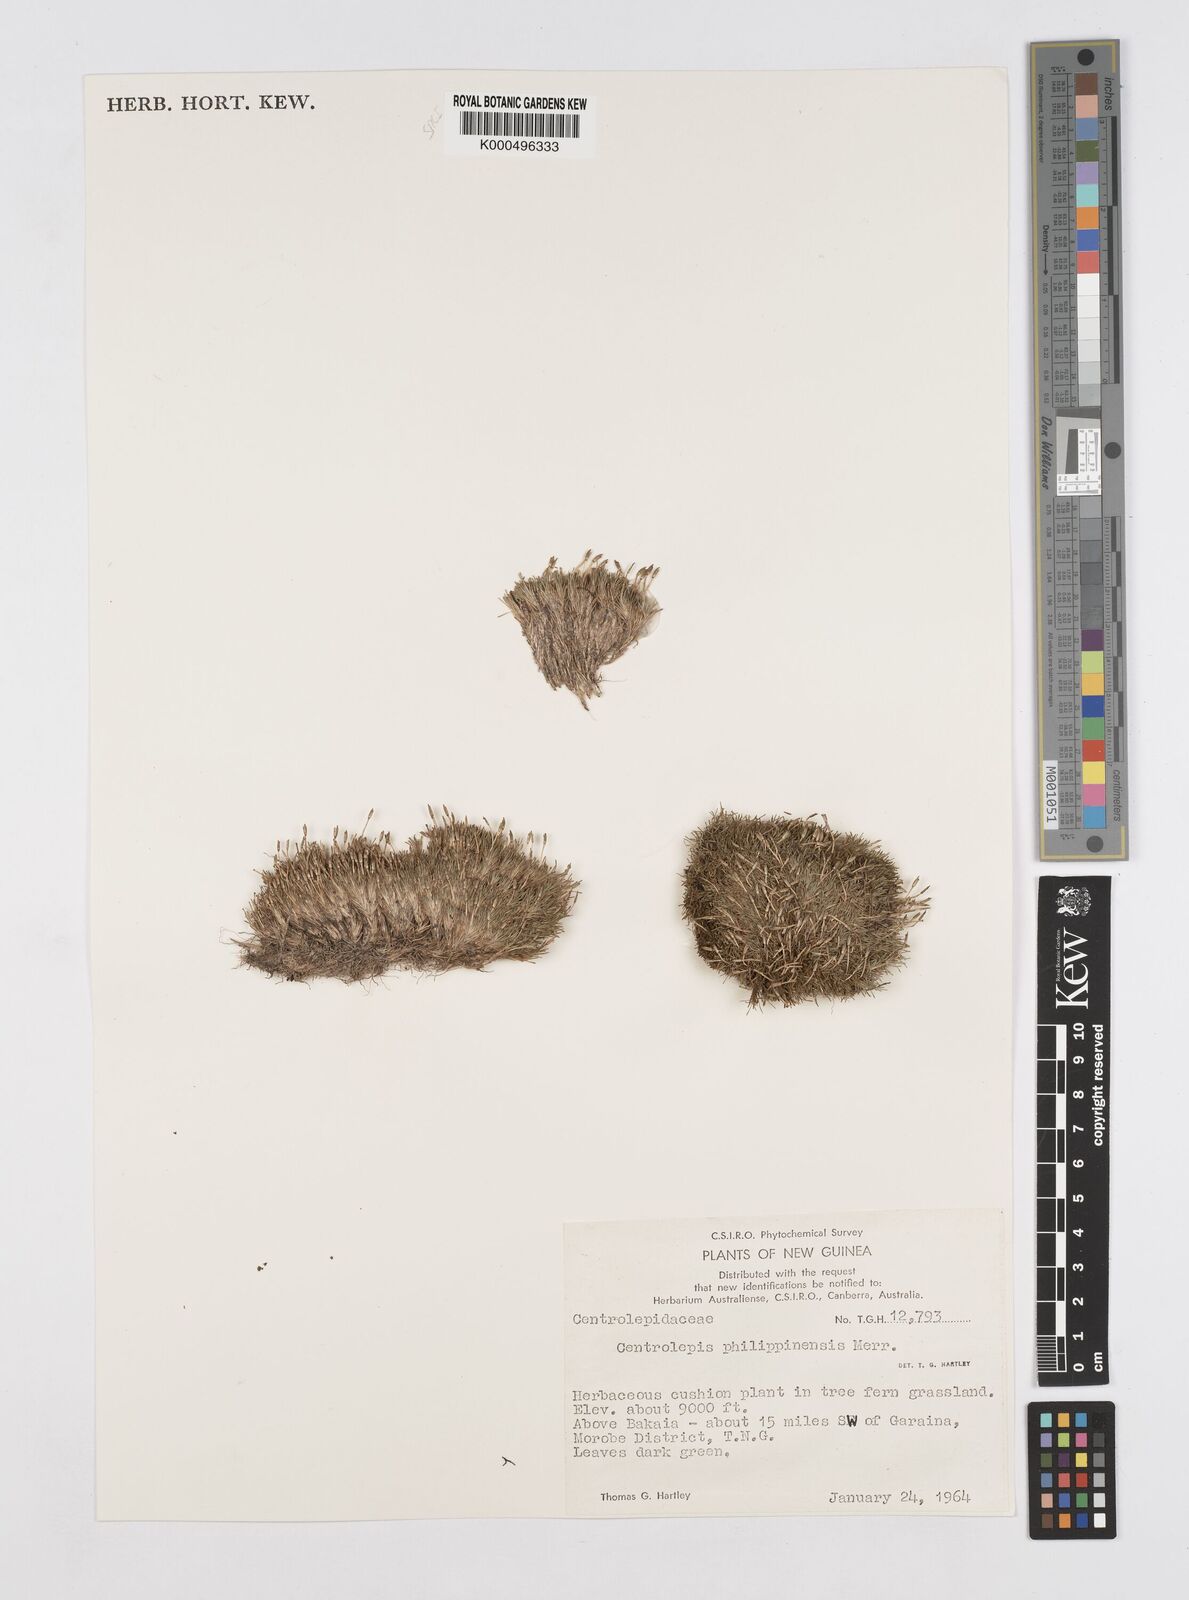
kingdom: Plantae
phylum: Tracheophyta
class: Liliopsida
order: Poales
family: Restionaceae
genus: Centrolepis
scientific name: Centrolepis philippinensis
